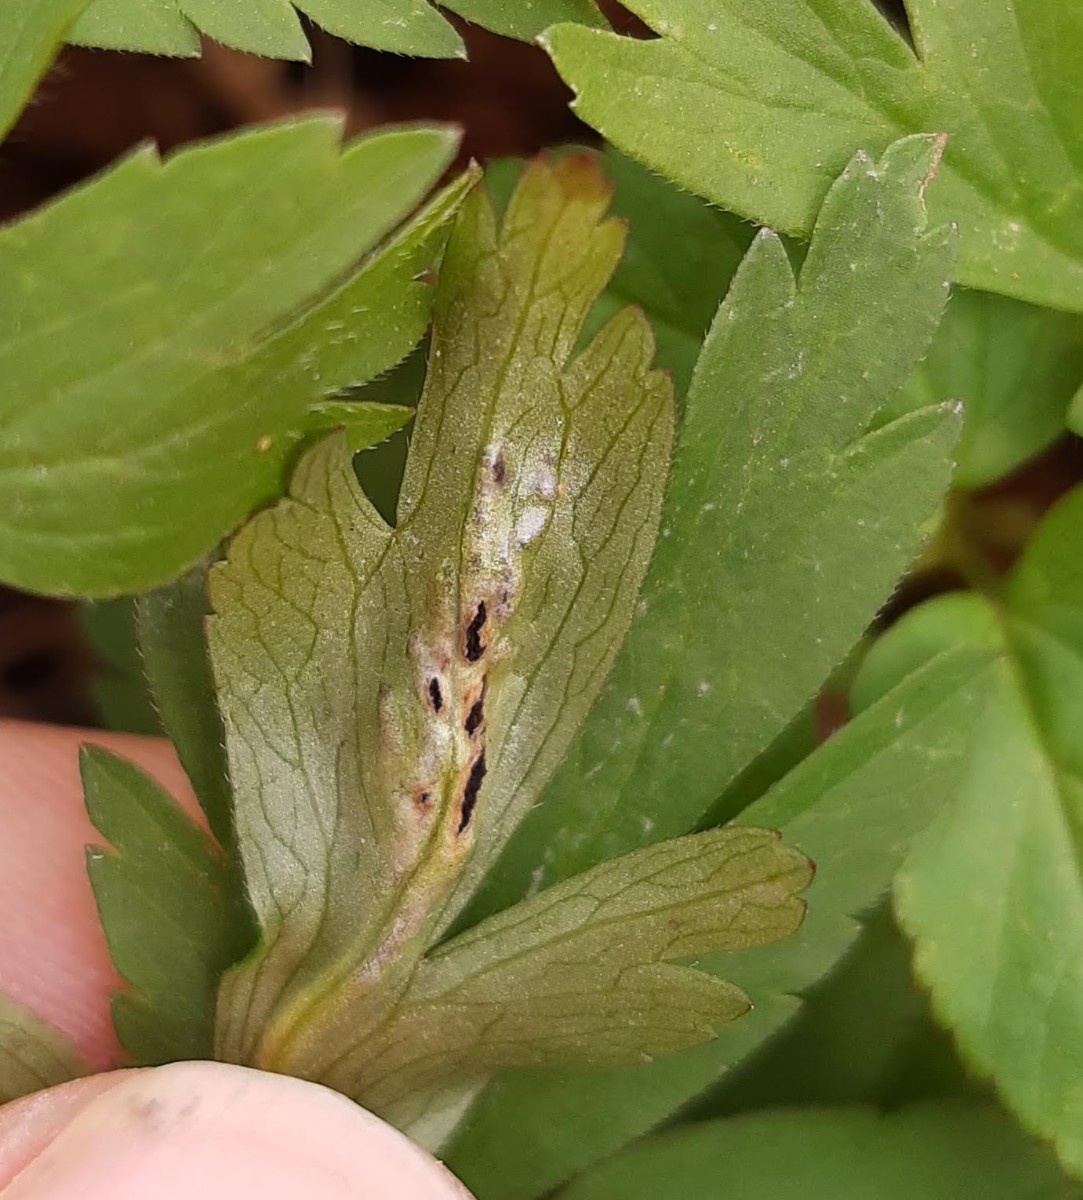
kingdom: Fungi
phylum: Basidiomycota
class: Ustilaginomycetes
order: Urocystidales
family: Urocystidaceae
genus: Urocystis
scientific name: Urocystis anemones
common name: anemone-brand
